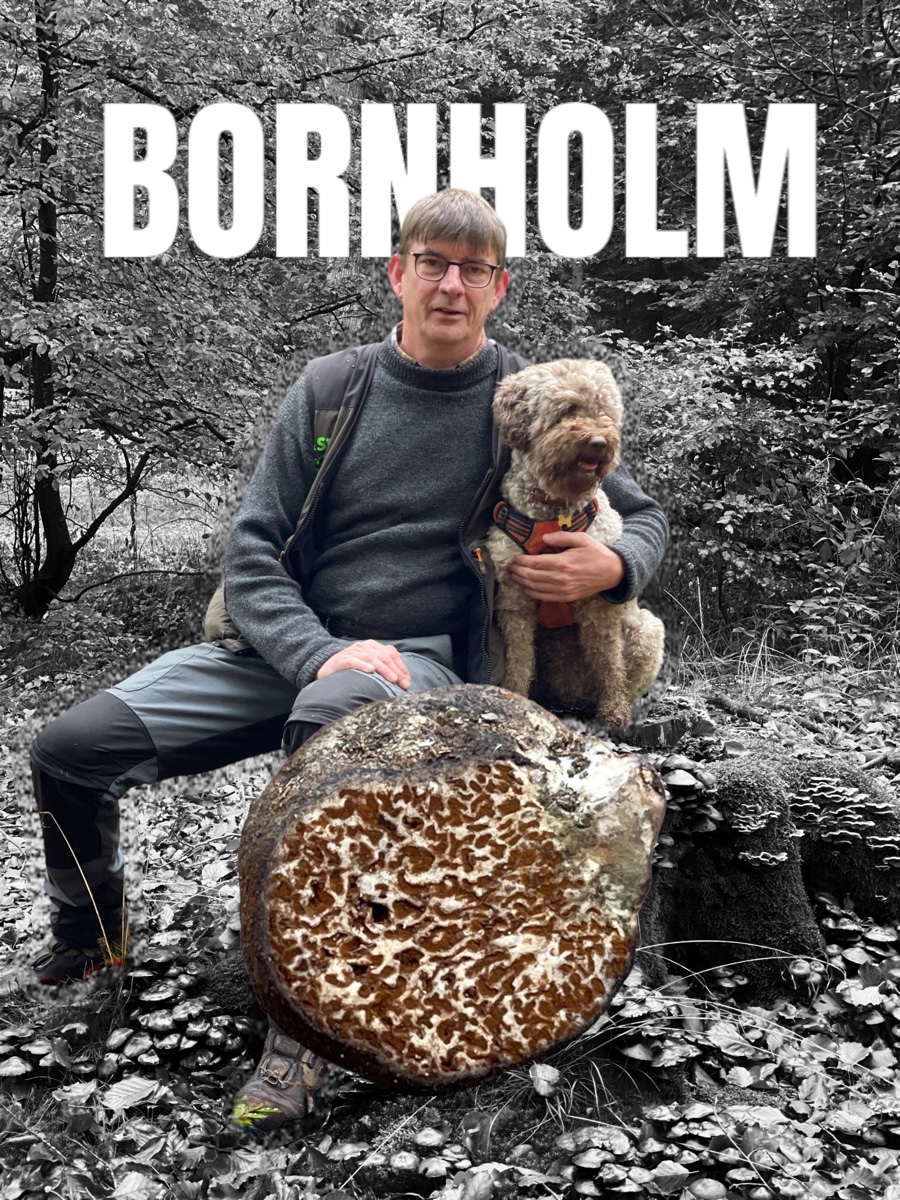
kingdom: Fungi
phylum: Basidiomycota
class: Agaricomycetes
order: Boletales
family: Boletaceae
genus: Octaviania
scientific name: Octaviania asterosperma
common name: vellugtende løvtrøffel
